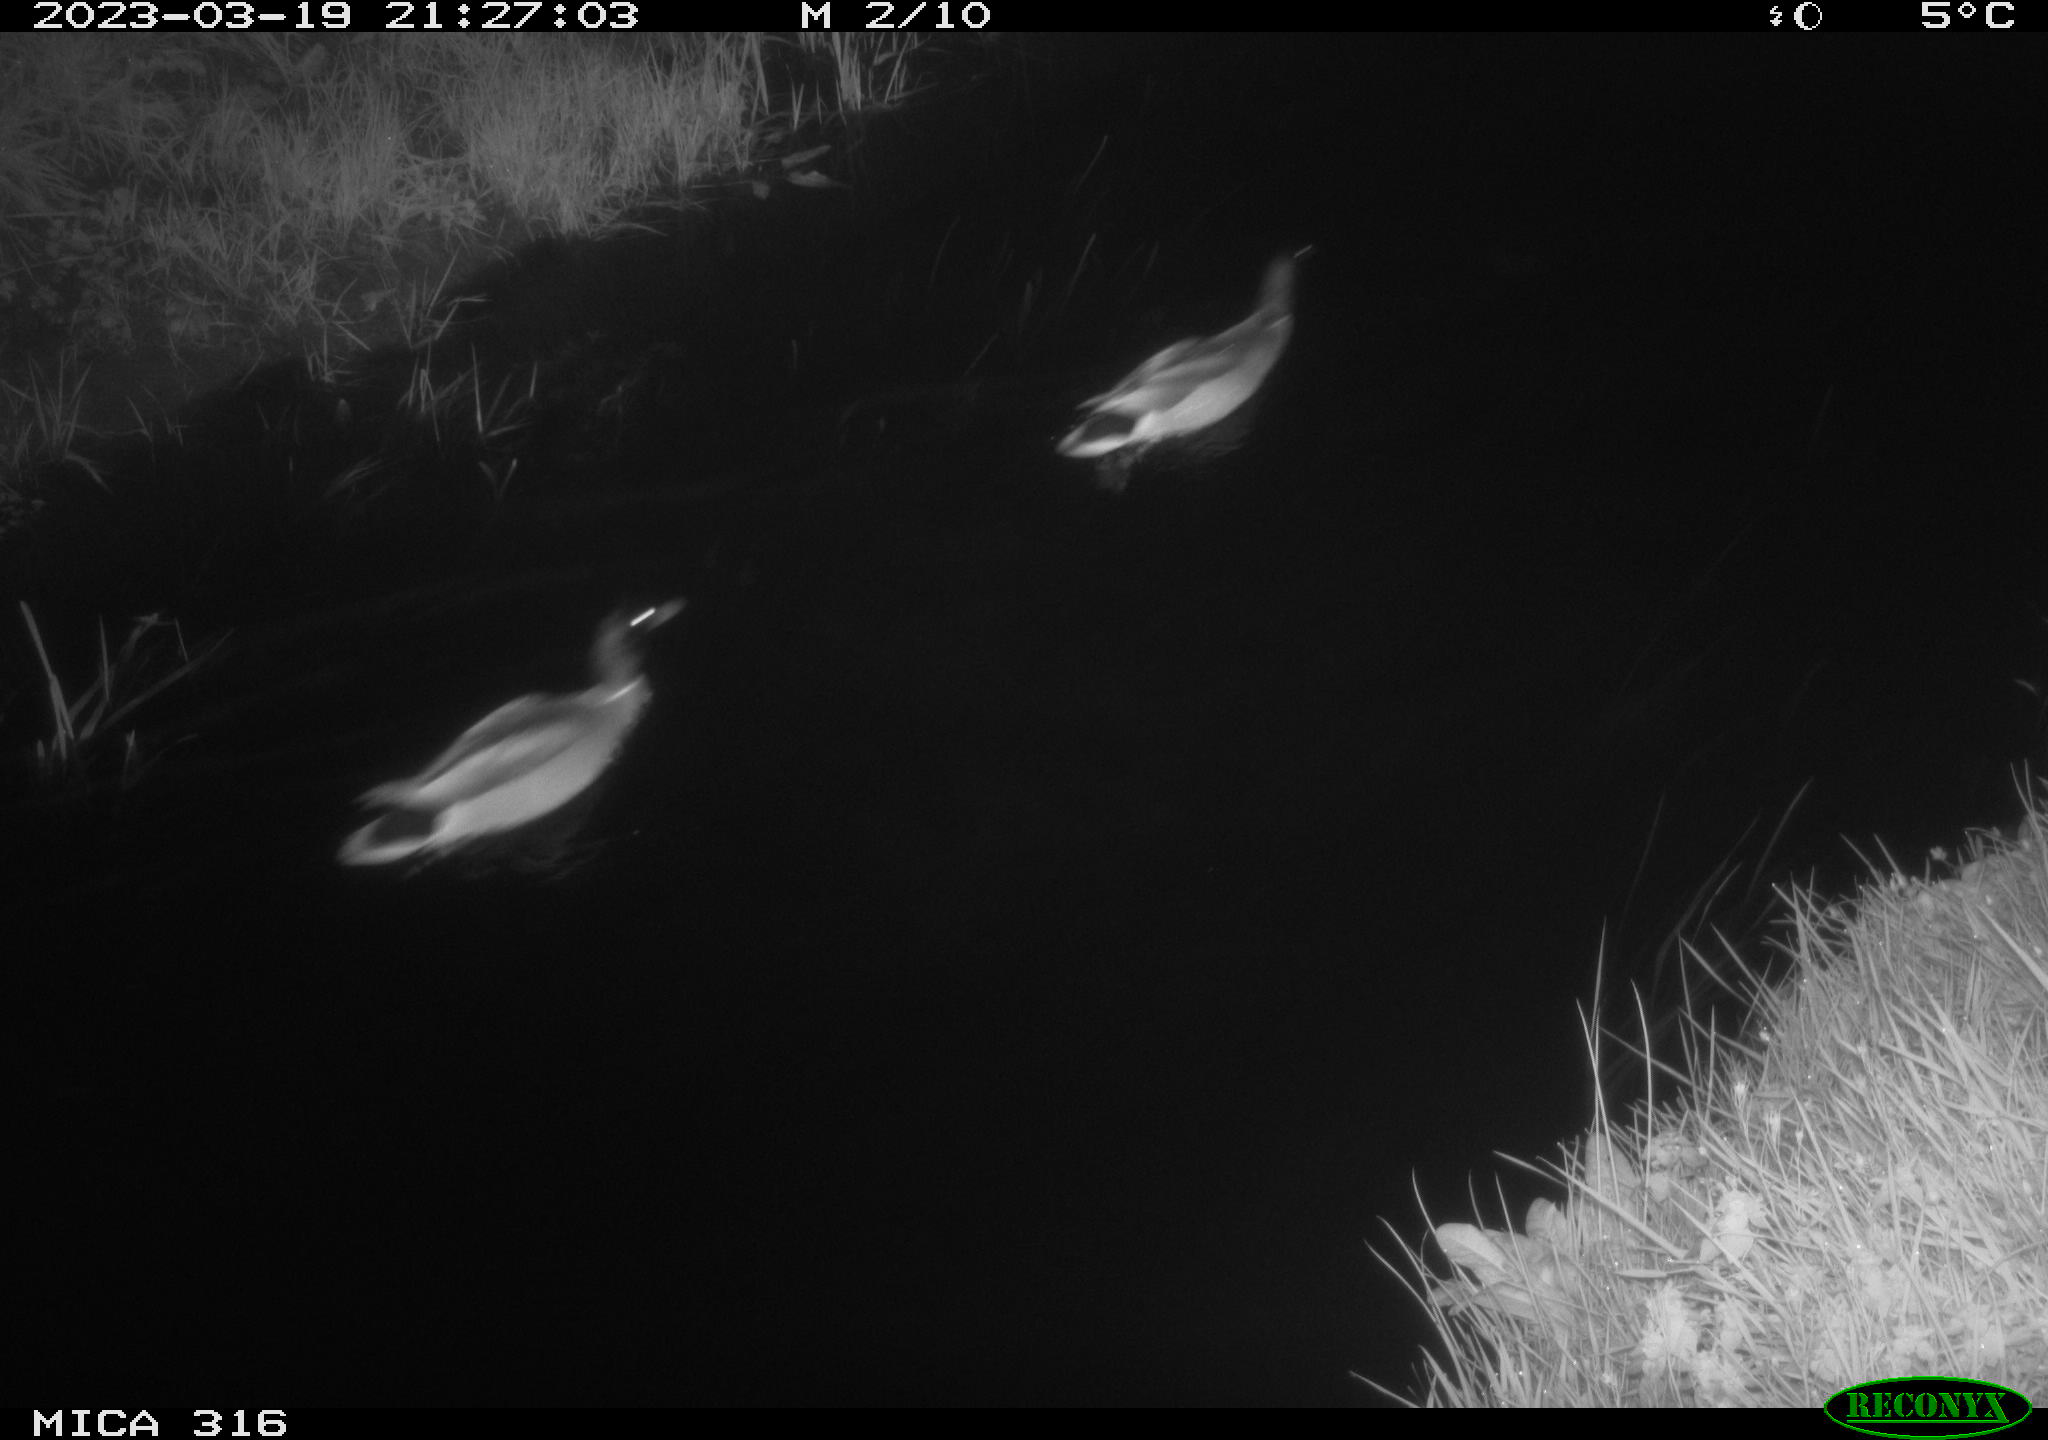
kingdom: Animalia
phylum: Chordata
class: Aves
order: Anseriformes
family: Anatidae
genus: Anas
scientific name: Anas
